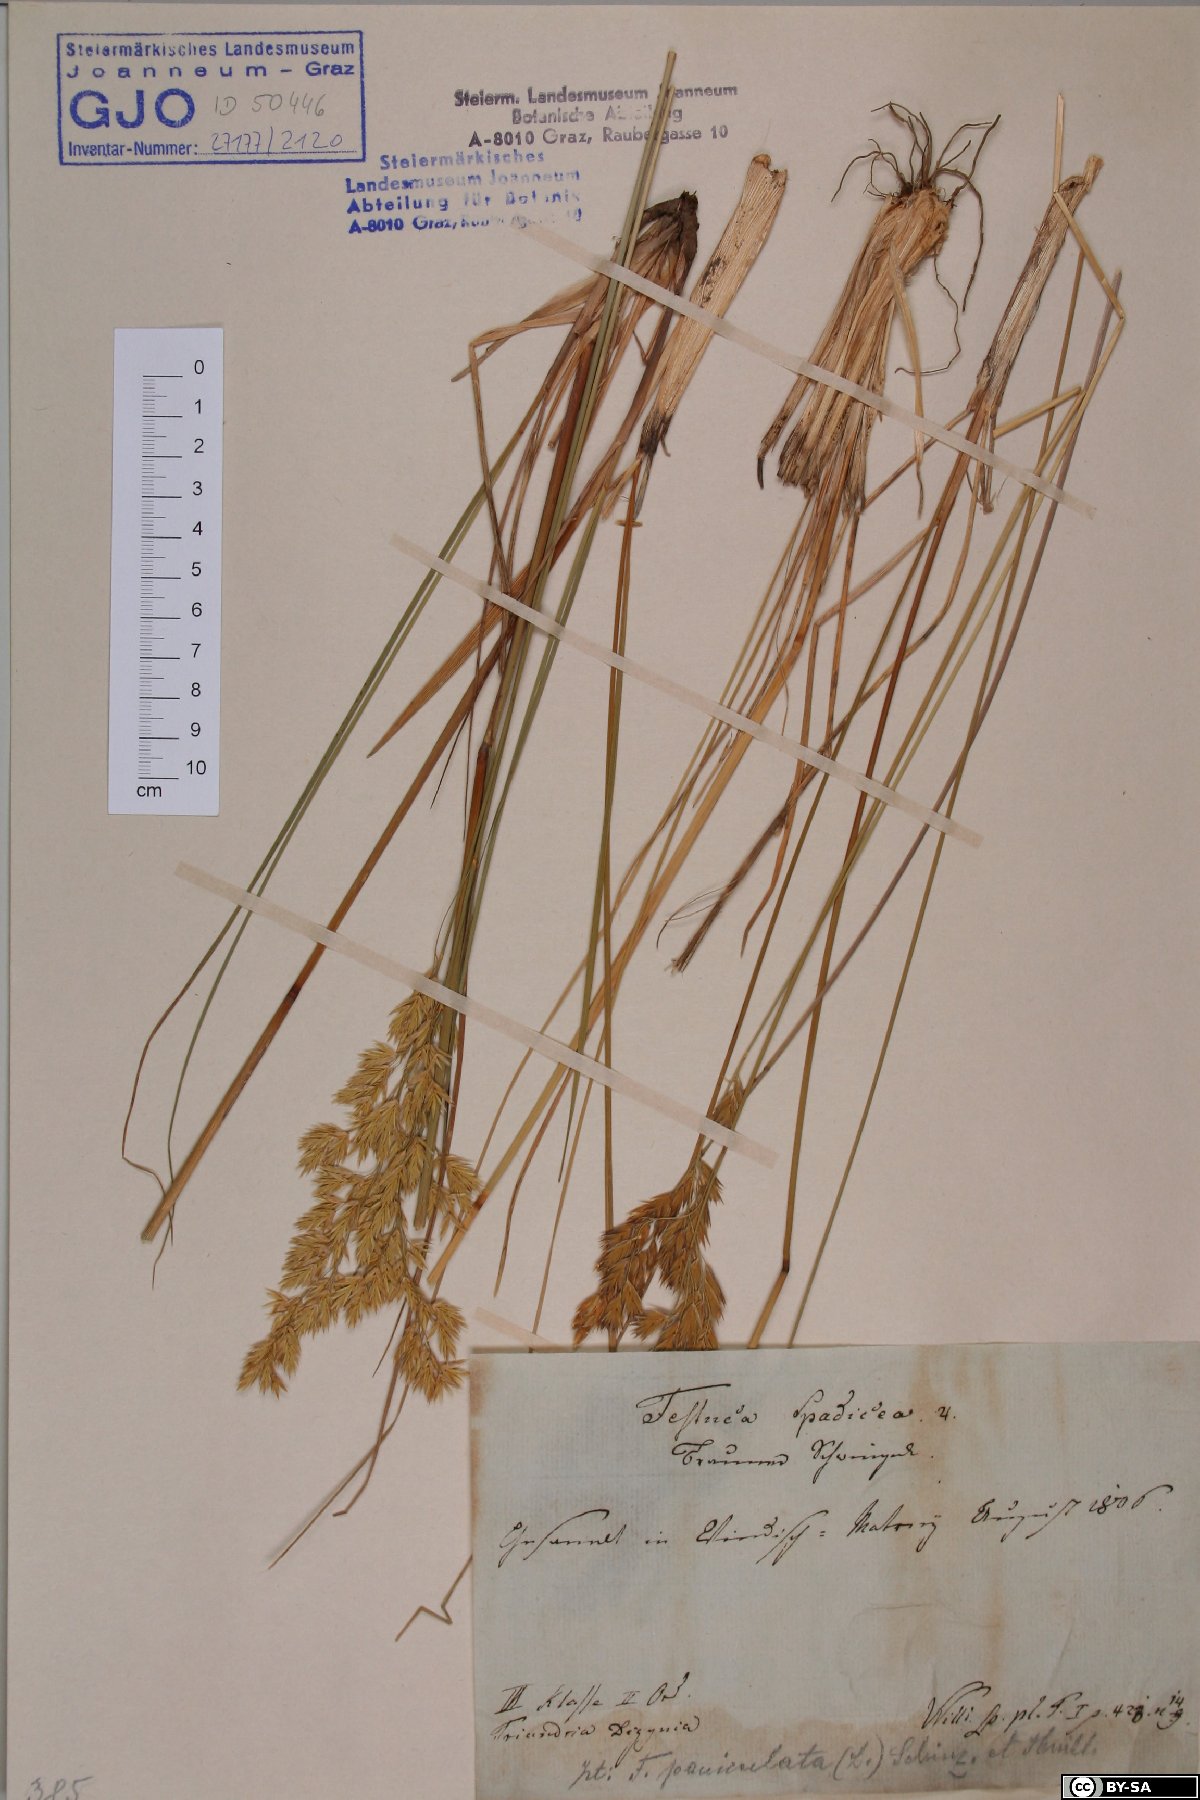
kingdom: Plantae
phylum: Tracheophyta
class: Liliopsida
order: Poales
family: Poaceae
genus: Patzkea
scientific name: Patzkea paniculata
